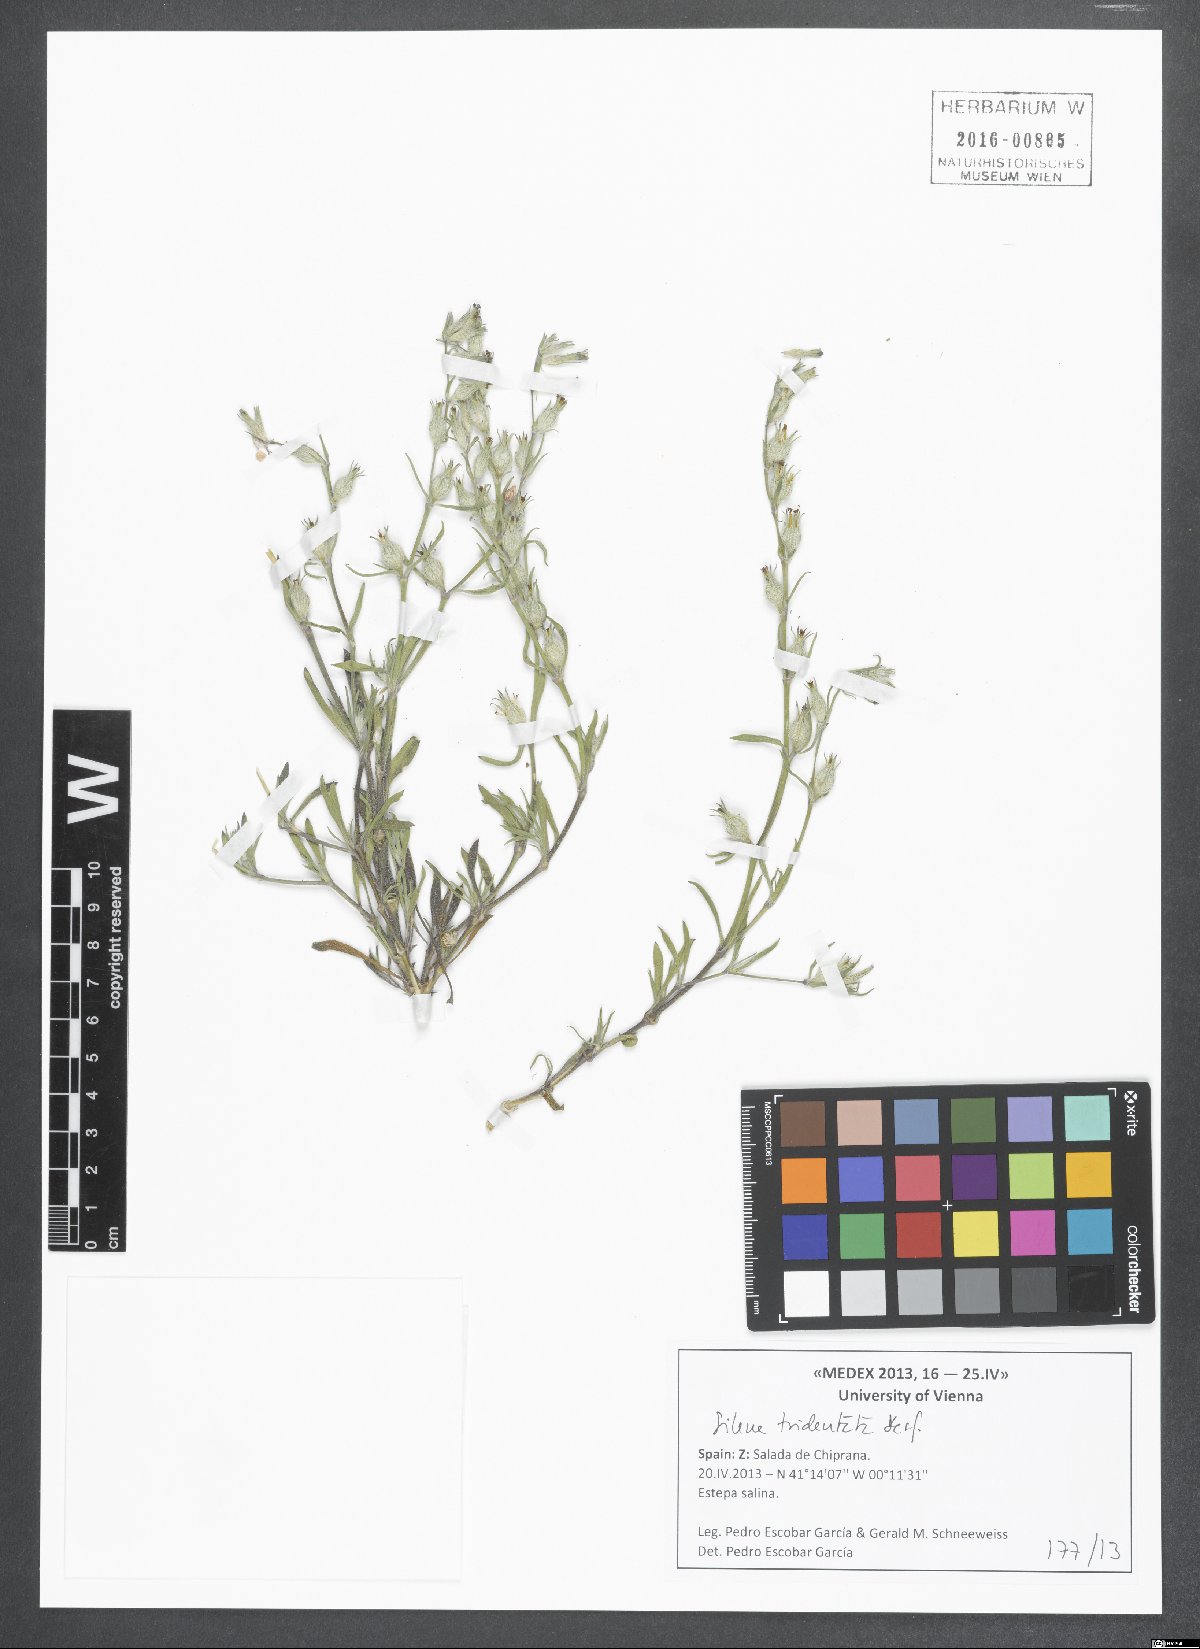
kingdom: Plantae
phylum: Tracheophyta
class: Magnoliopsida
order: Caryophyllales
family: Caryophyllaceae
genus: Silene
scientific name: Silene tridentata
